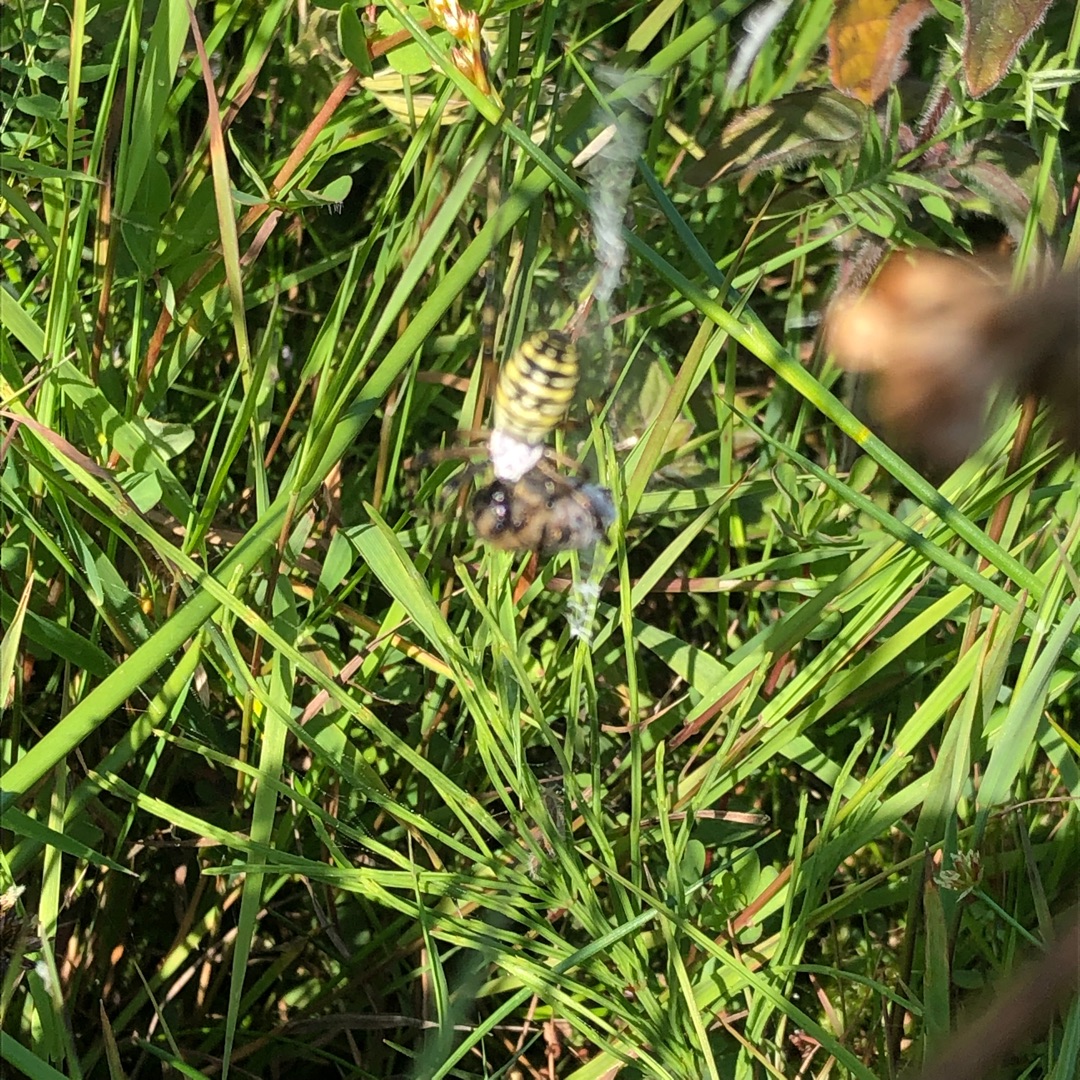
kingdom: Animalia
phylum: Arthropoda
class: Arachnida
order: Araneae
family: Araneidae
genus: Argiope
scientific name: Argiope bruennichi
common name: Hvepseedderkop
